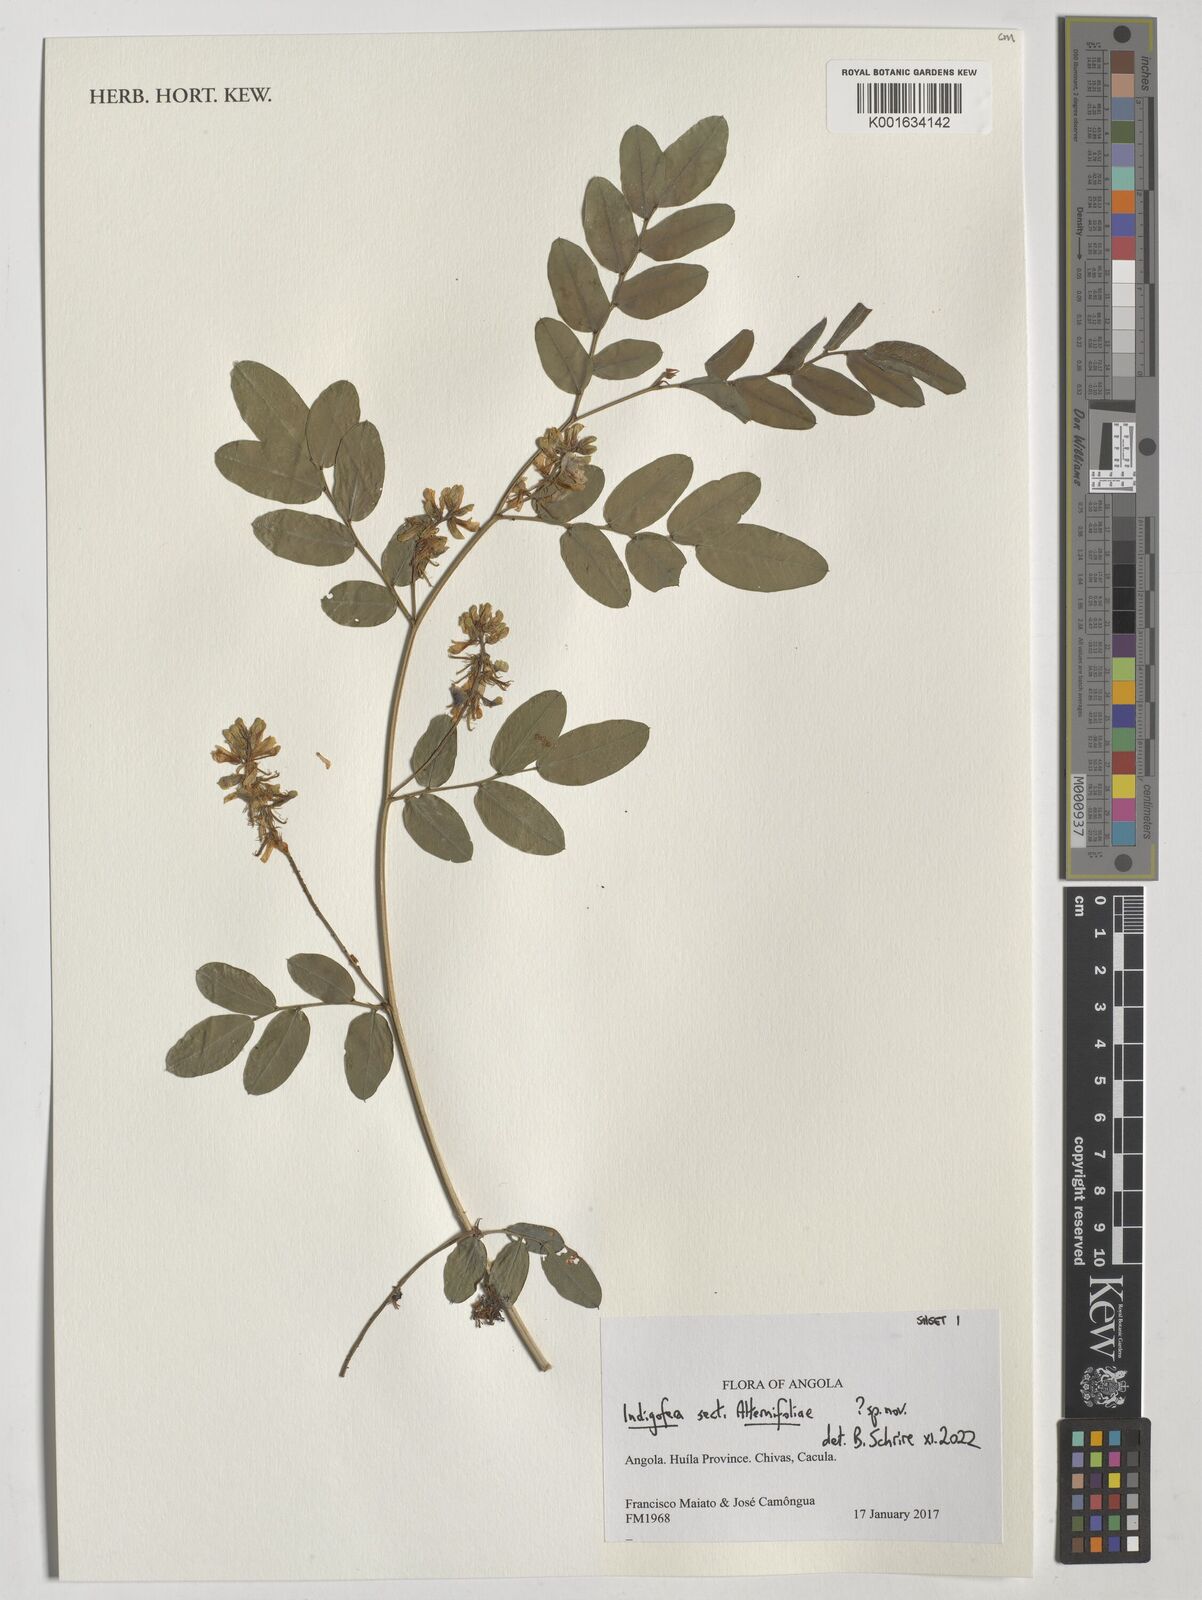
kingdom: Plantae
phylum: Tracheophyta
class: Magnoliopsida
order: Fabales
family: Fabaceae
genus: Indigofera
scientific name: Indigofera
